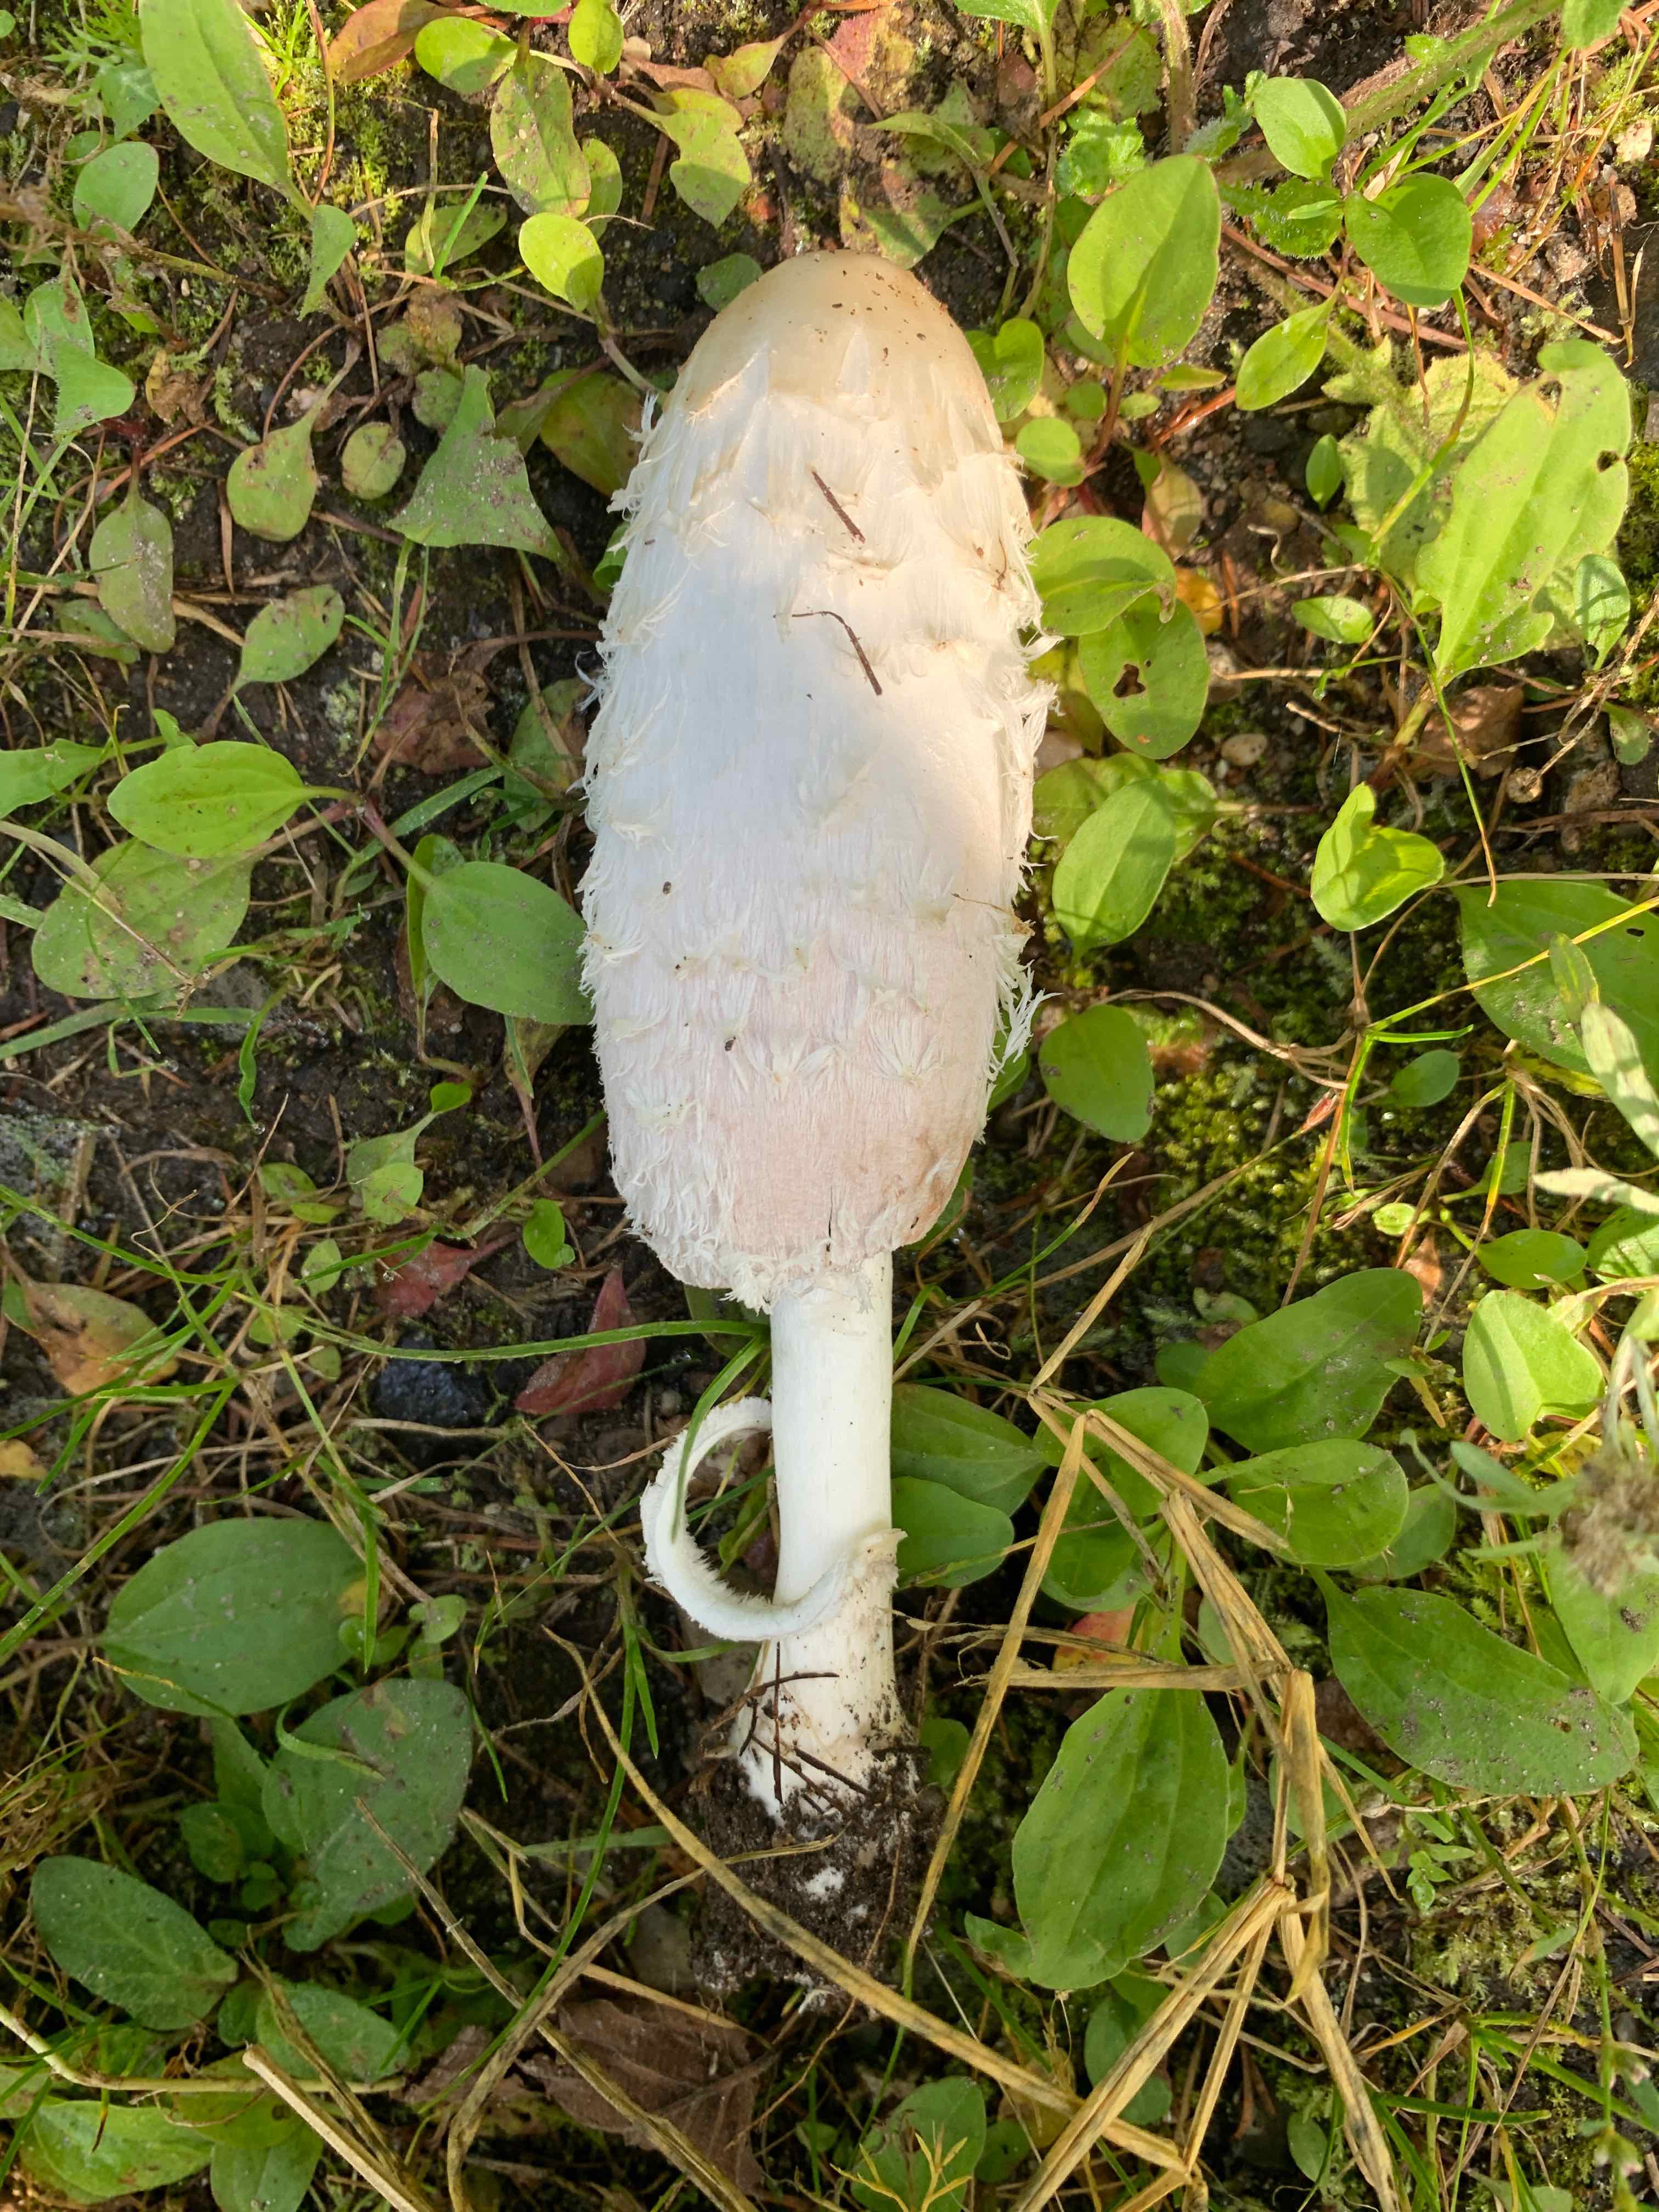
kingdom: Fungi
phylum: Basidiomycota
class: Agaricomycetes
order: Agaricales
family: Agaricaceae
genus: Coprinus
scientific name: Coprinus comatus
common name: stor parykhat
